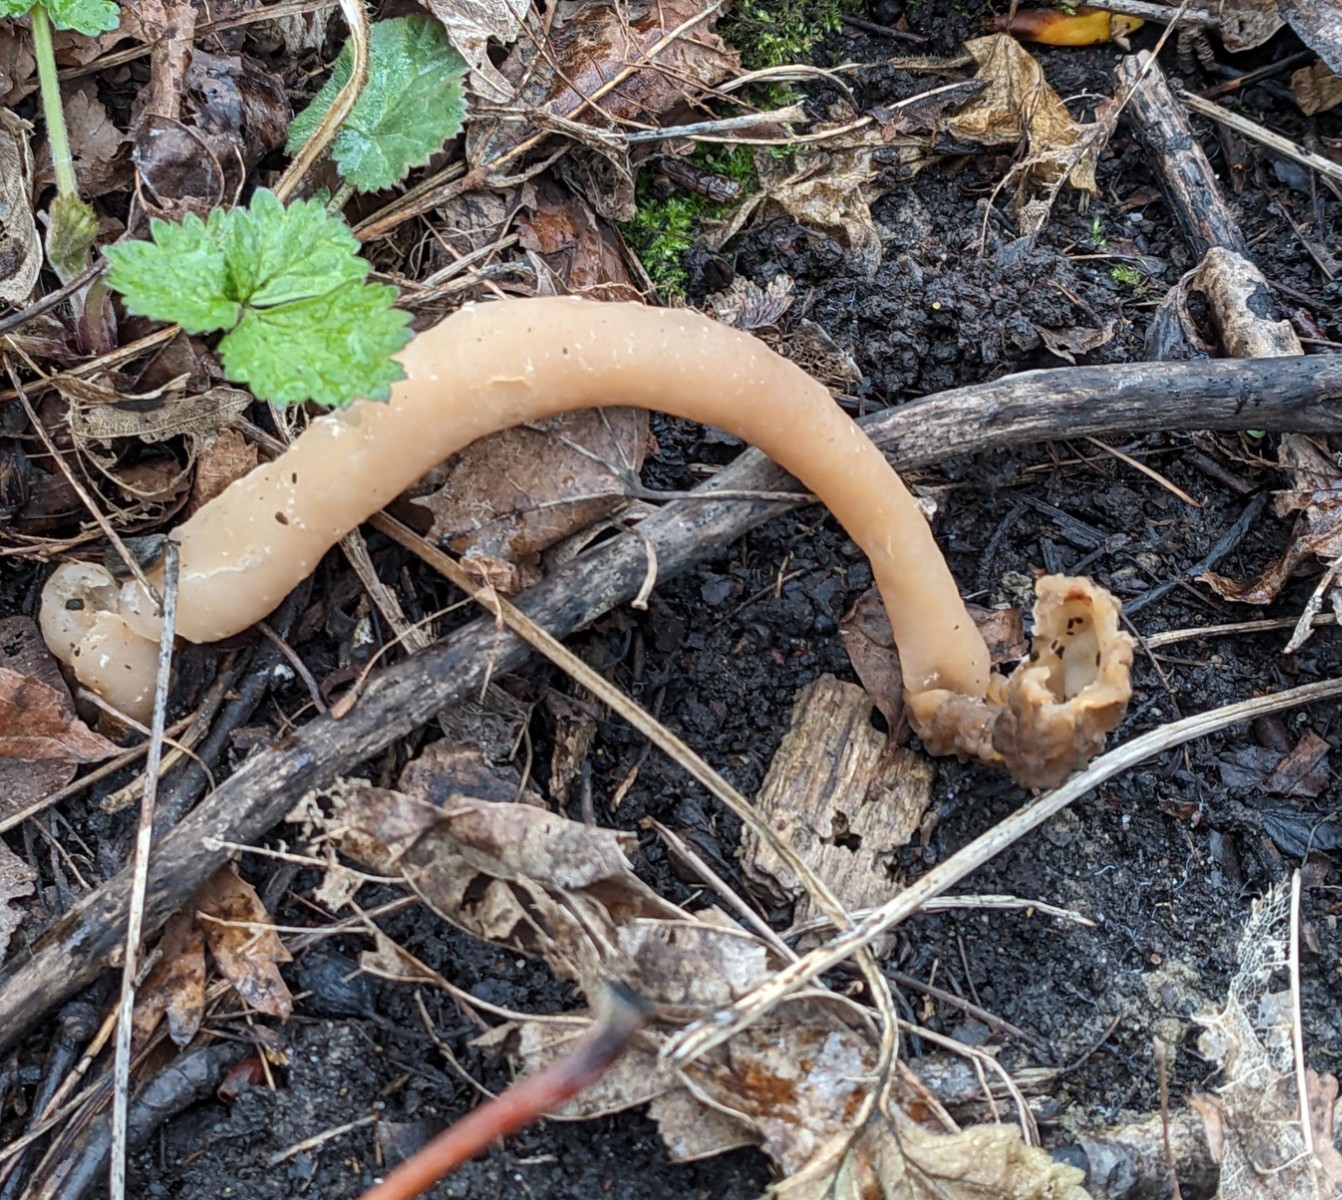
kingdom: Fungi
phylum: Ascomycota
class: Pezizomycetes
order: Pezizales
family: Morchellaceae
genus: Verpa
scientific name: Verpa conica
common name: glat klokkemorkel
